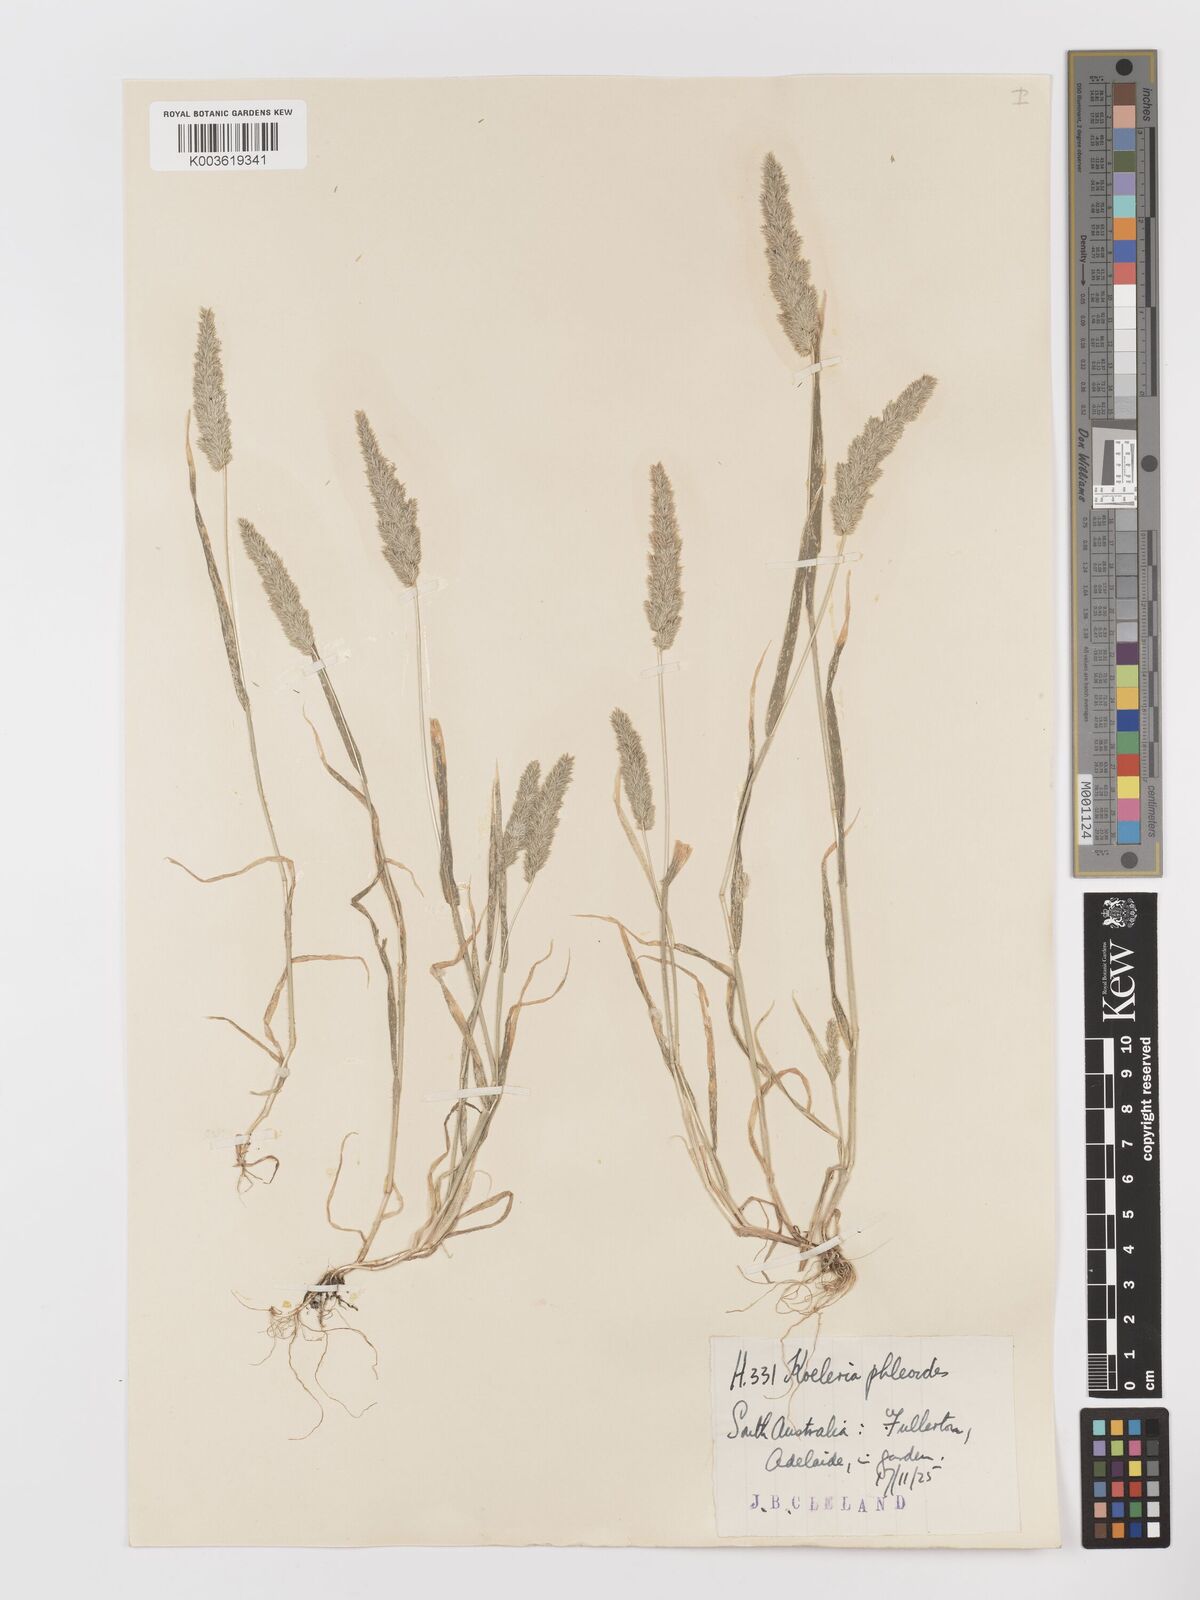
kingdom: Plantae
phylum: Tracheophyta
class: Liliopsida
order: Poales
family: Poaceae
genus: Rostraria
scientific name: Rostraria cristata
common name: Mediterranean hair-grass
